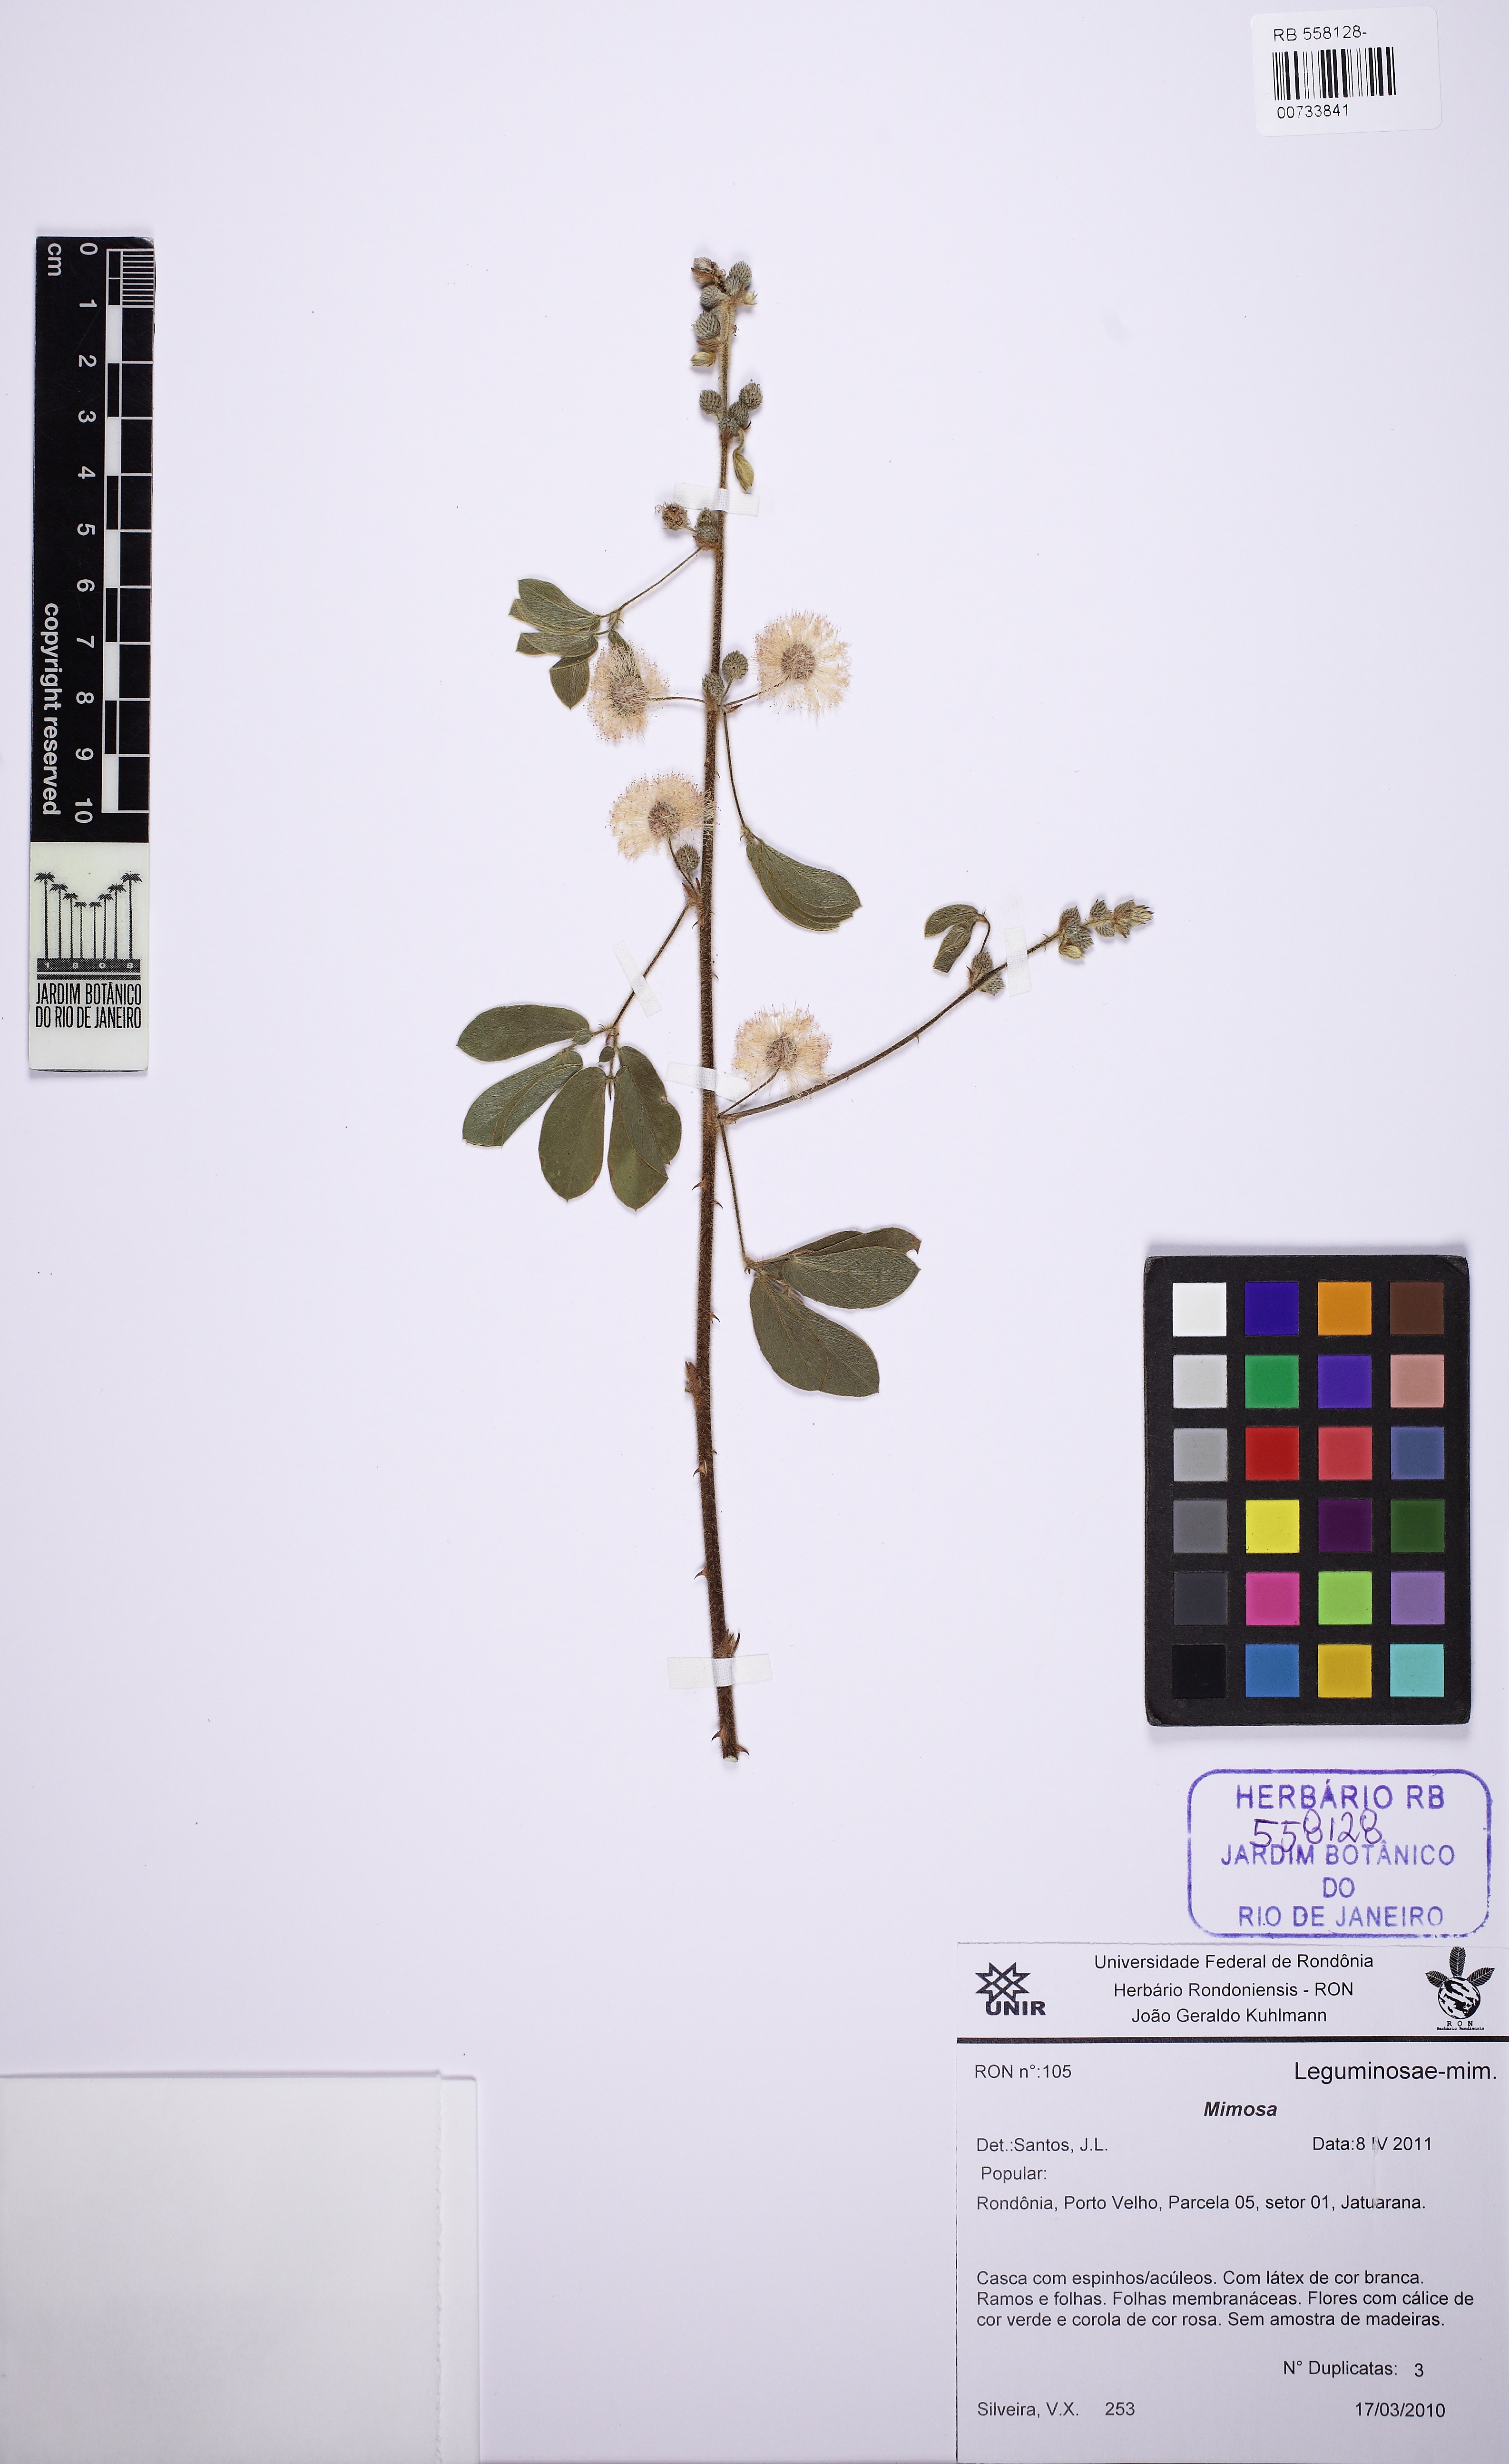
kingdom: Plantae
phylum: Tracheophyta
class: Magnoliopsida
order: Fabales
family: Fabaceae
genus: Mimosa
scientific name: Mimosa debilis
